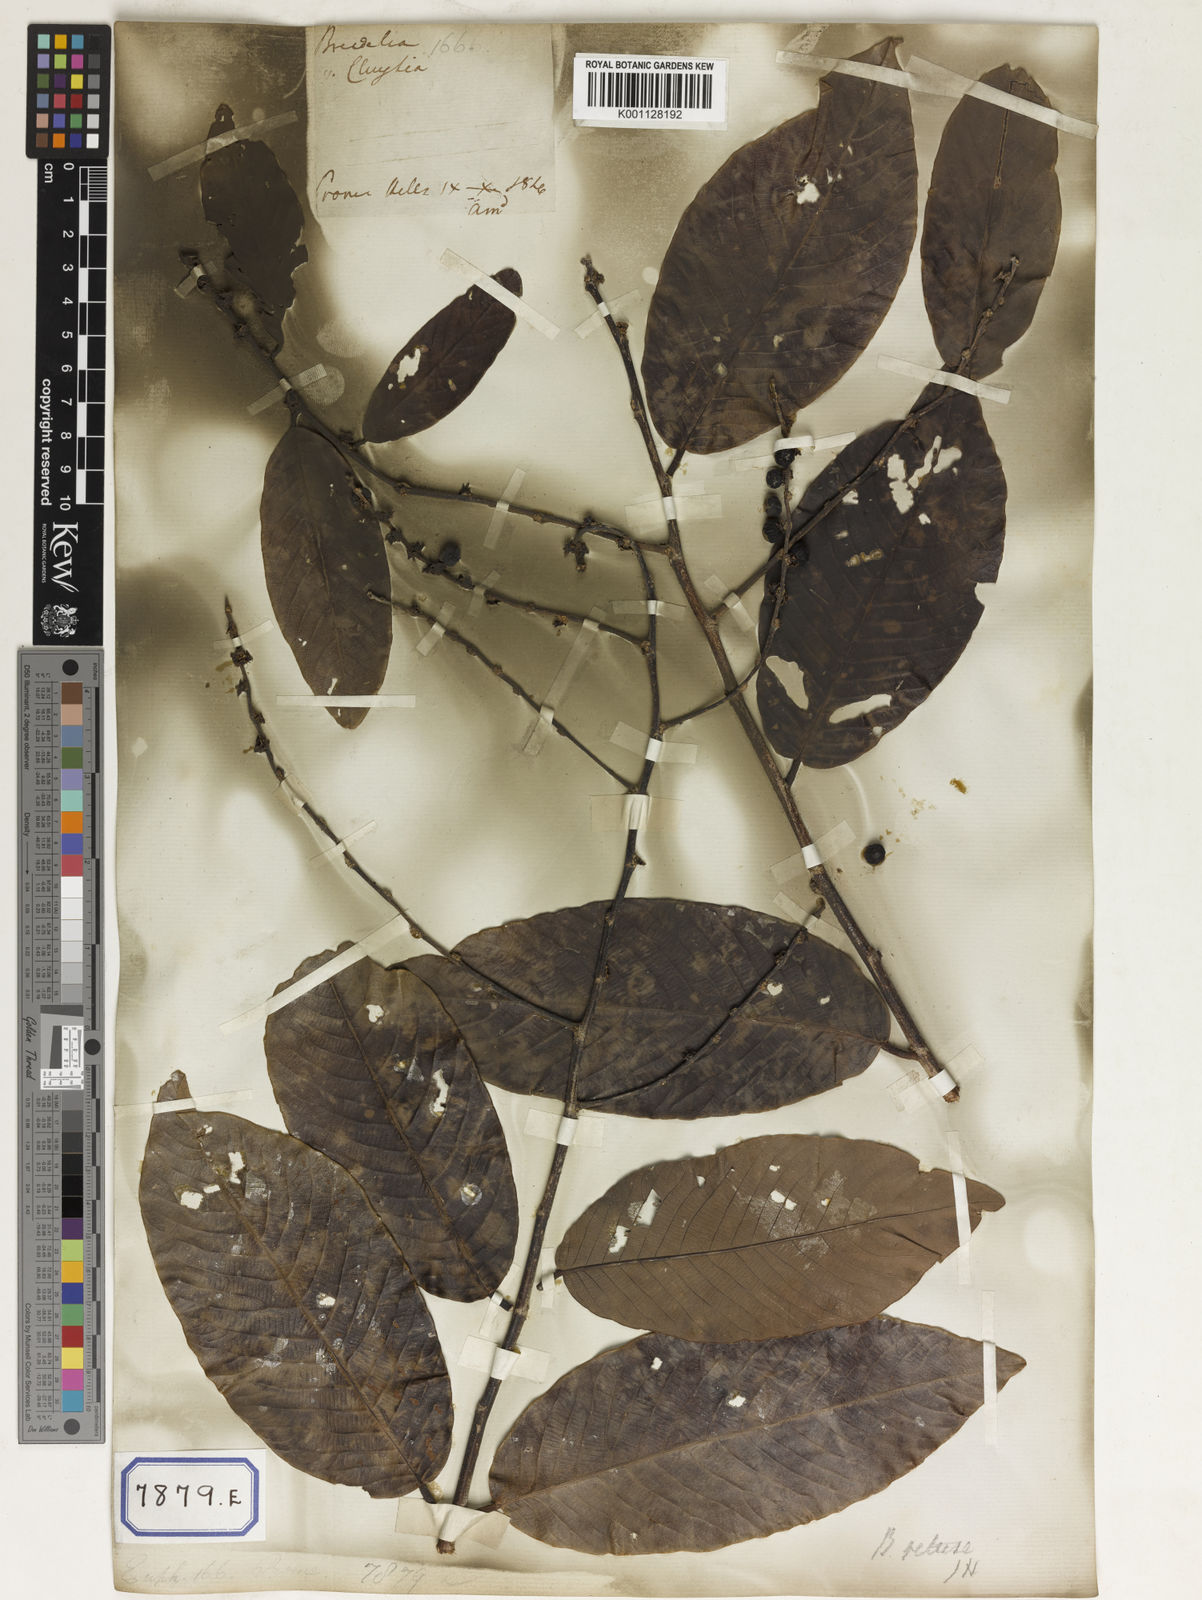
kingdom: Plantae
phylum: Tracheophyta
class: Magnoliopsida
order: Malpighiales
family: Phyllanthaceae
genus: Bridelia
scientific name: Bridelia montana
